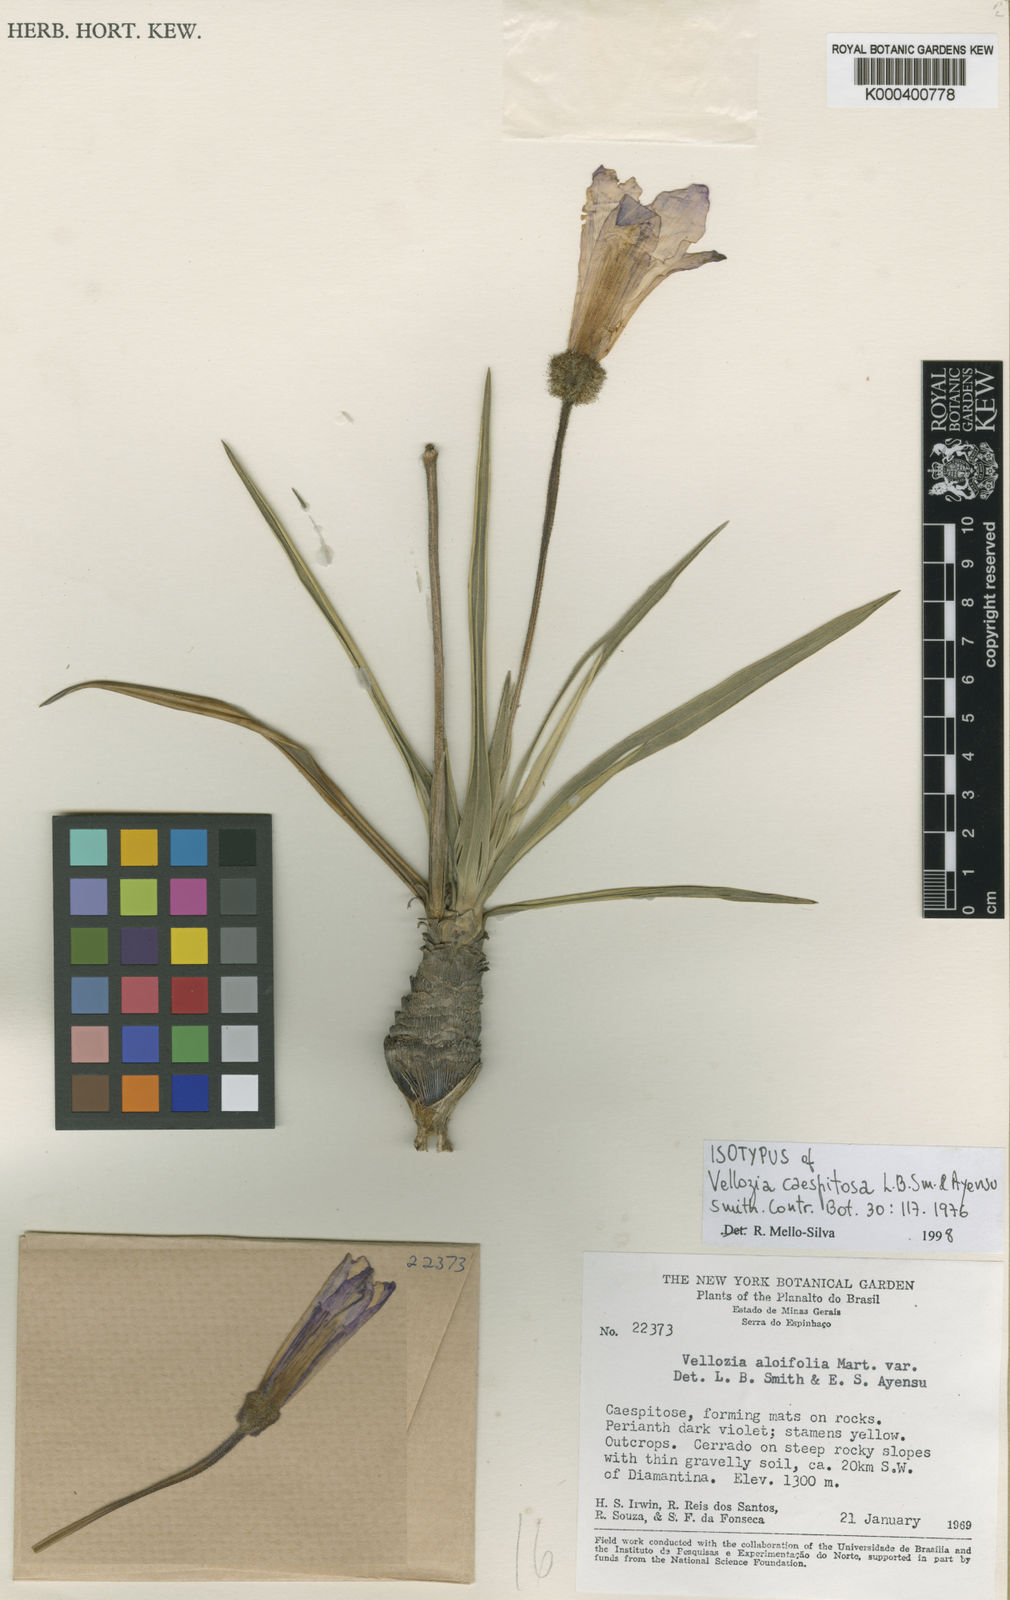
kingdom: Plantae
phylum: Tracheophyta
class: Liliopsida
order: Pandanales
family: Velloziaceae
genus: Vellozia
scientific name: Vellozia caespitosa
